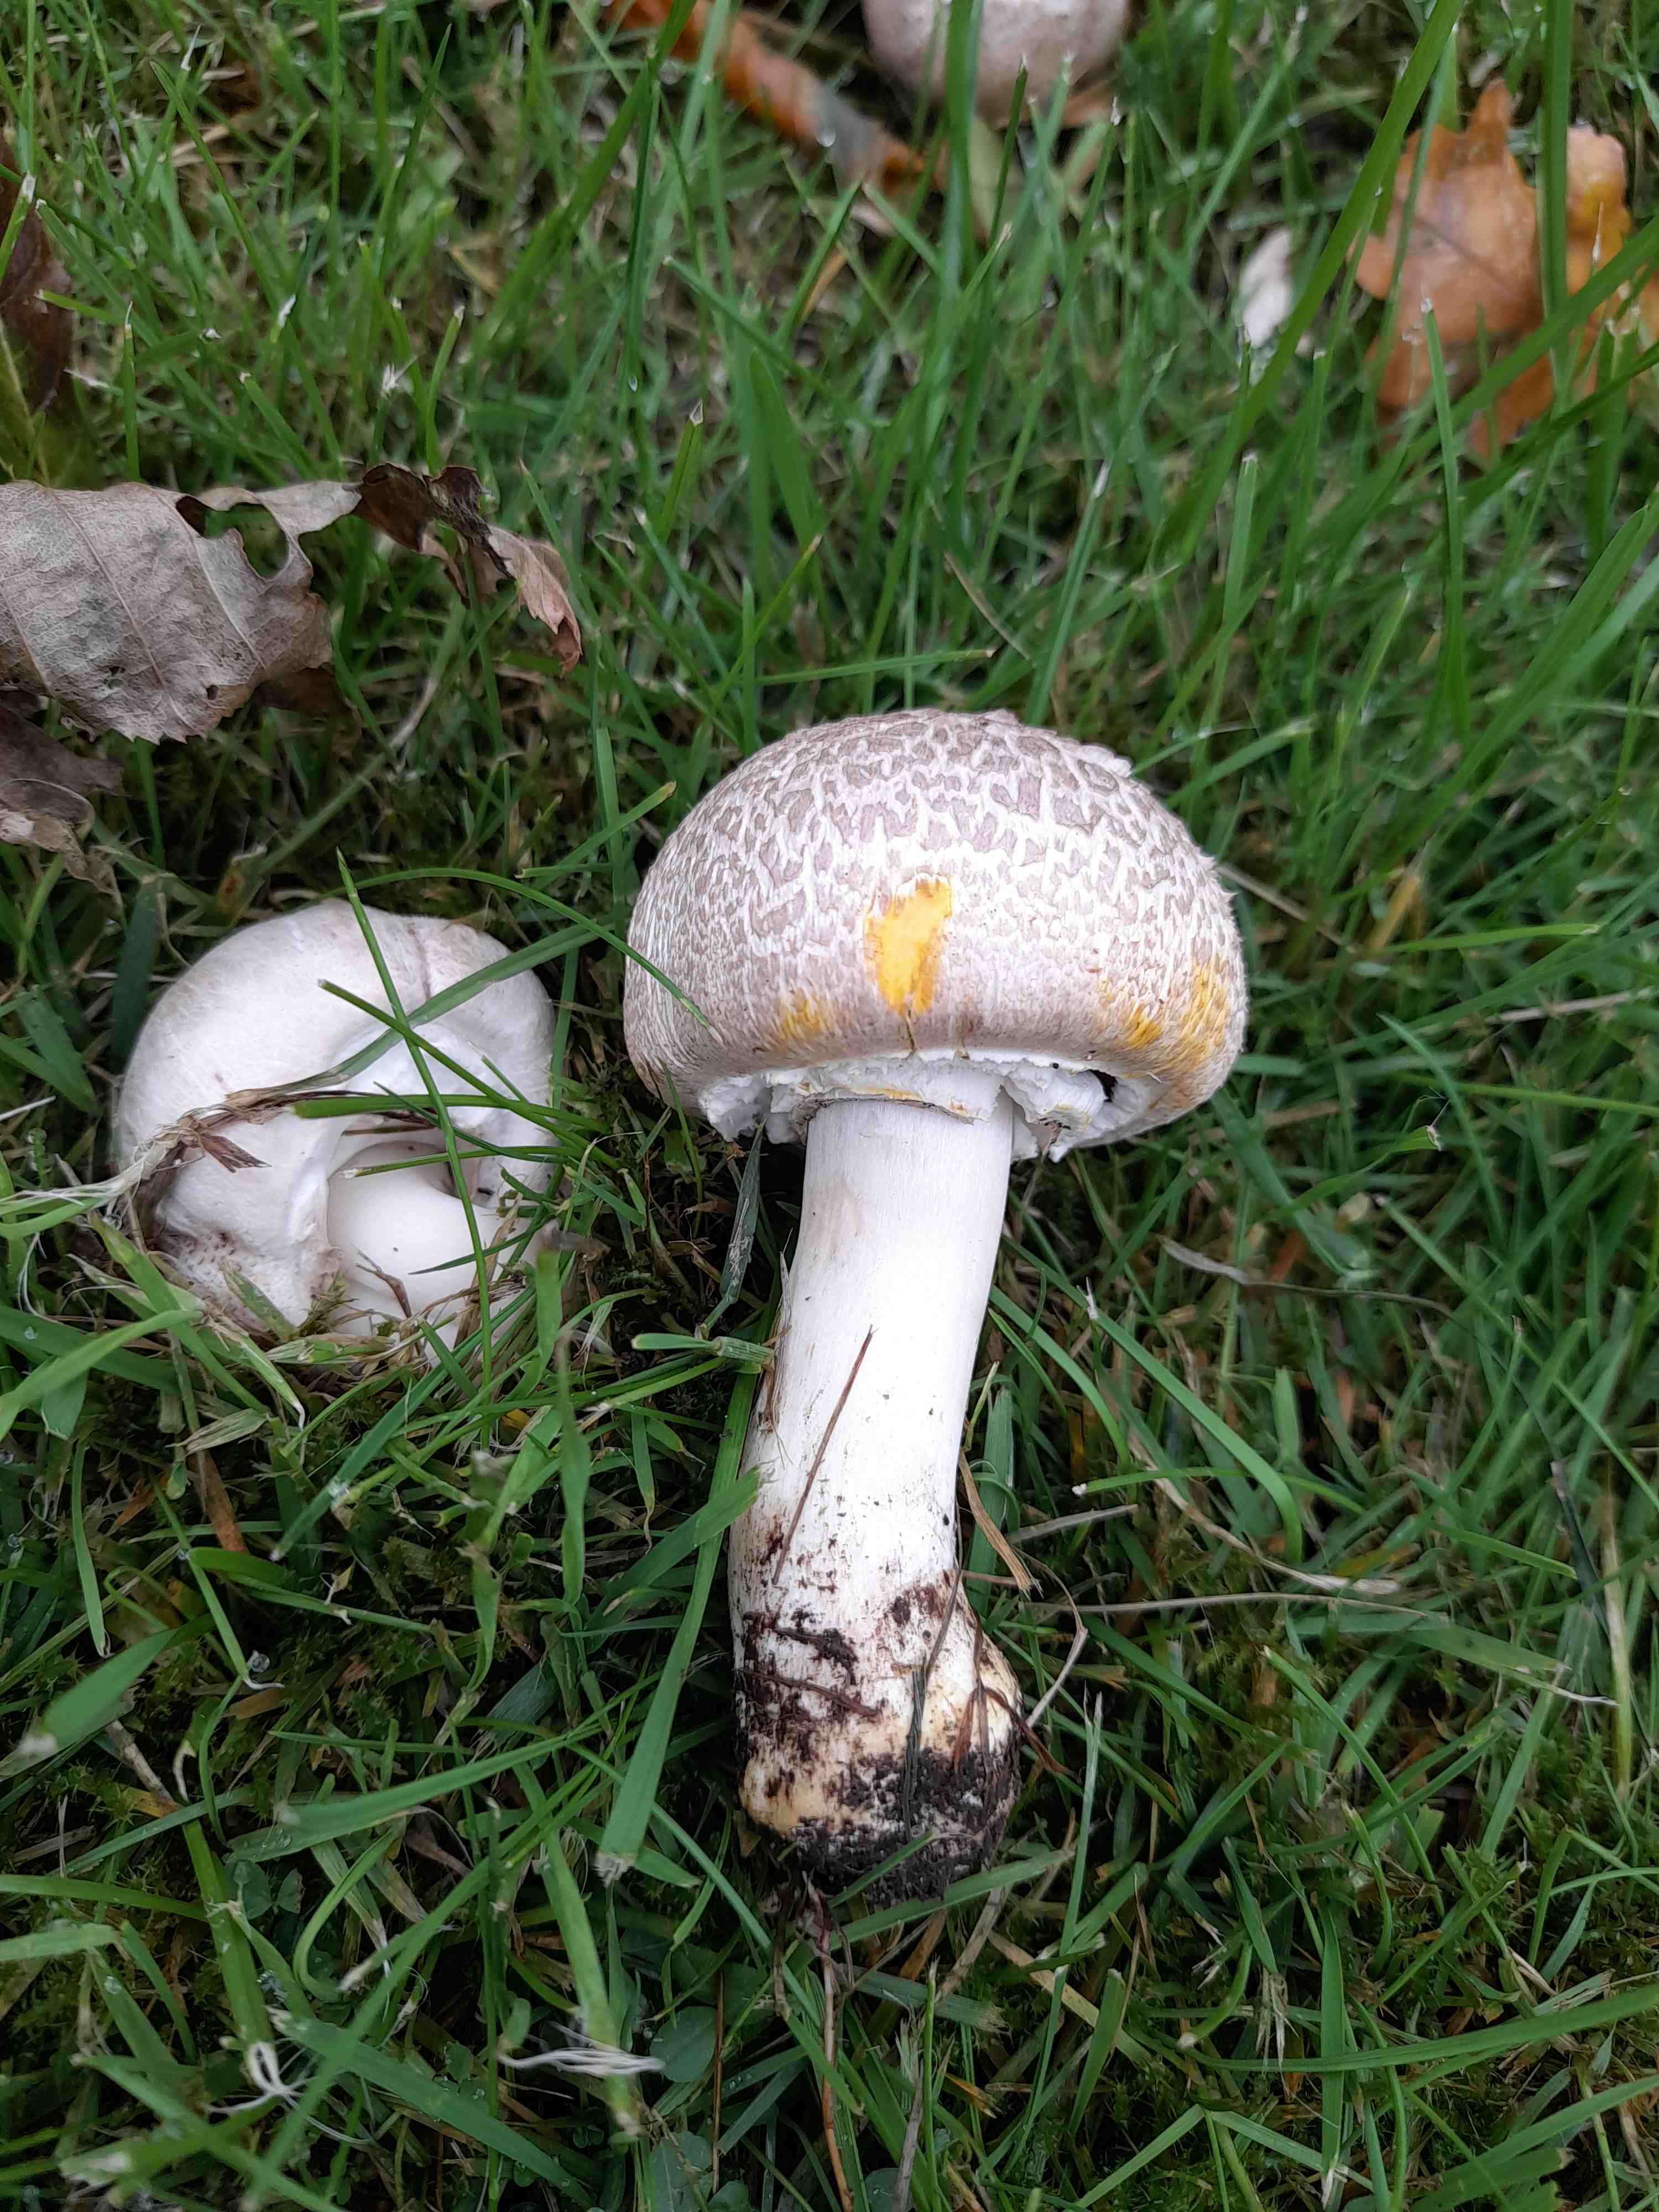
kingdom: Fungi
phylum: Basidiomycota
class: Agaricomycetes
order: Agaricales
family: Agaricaceae
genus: Agaricus
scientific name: Agaricus xanthodermus
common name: karbol-champignon
